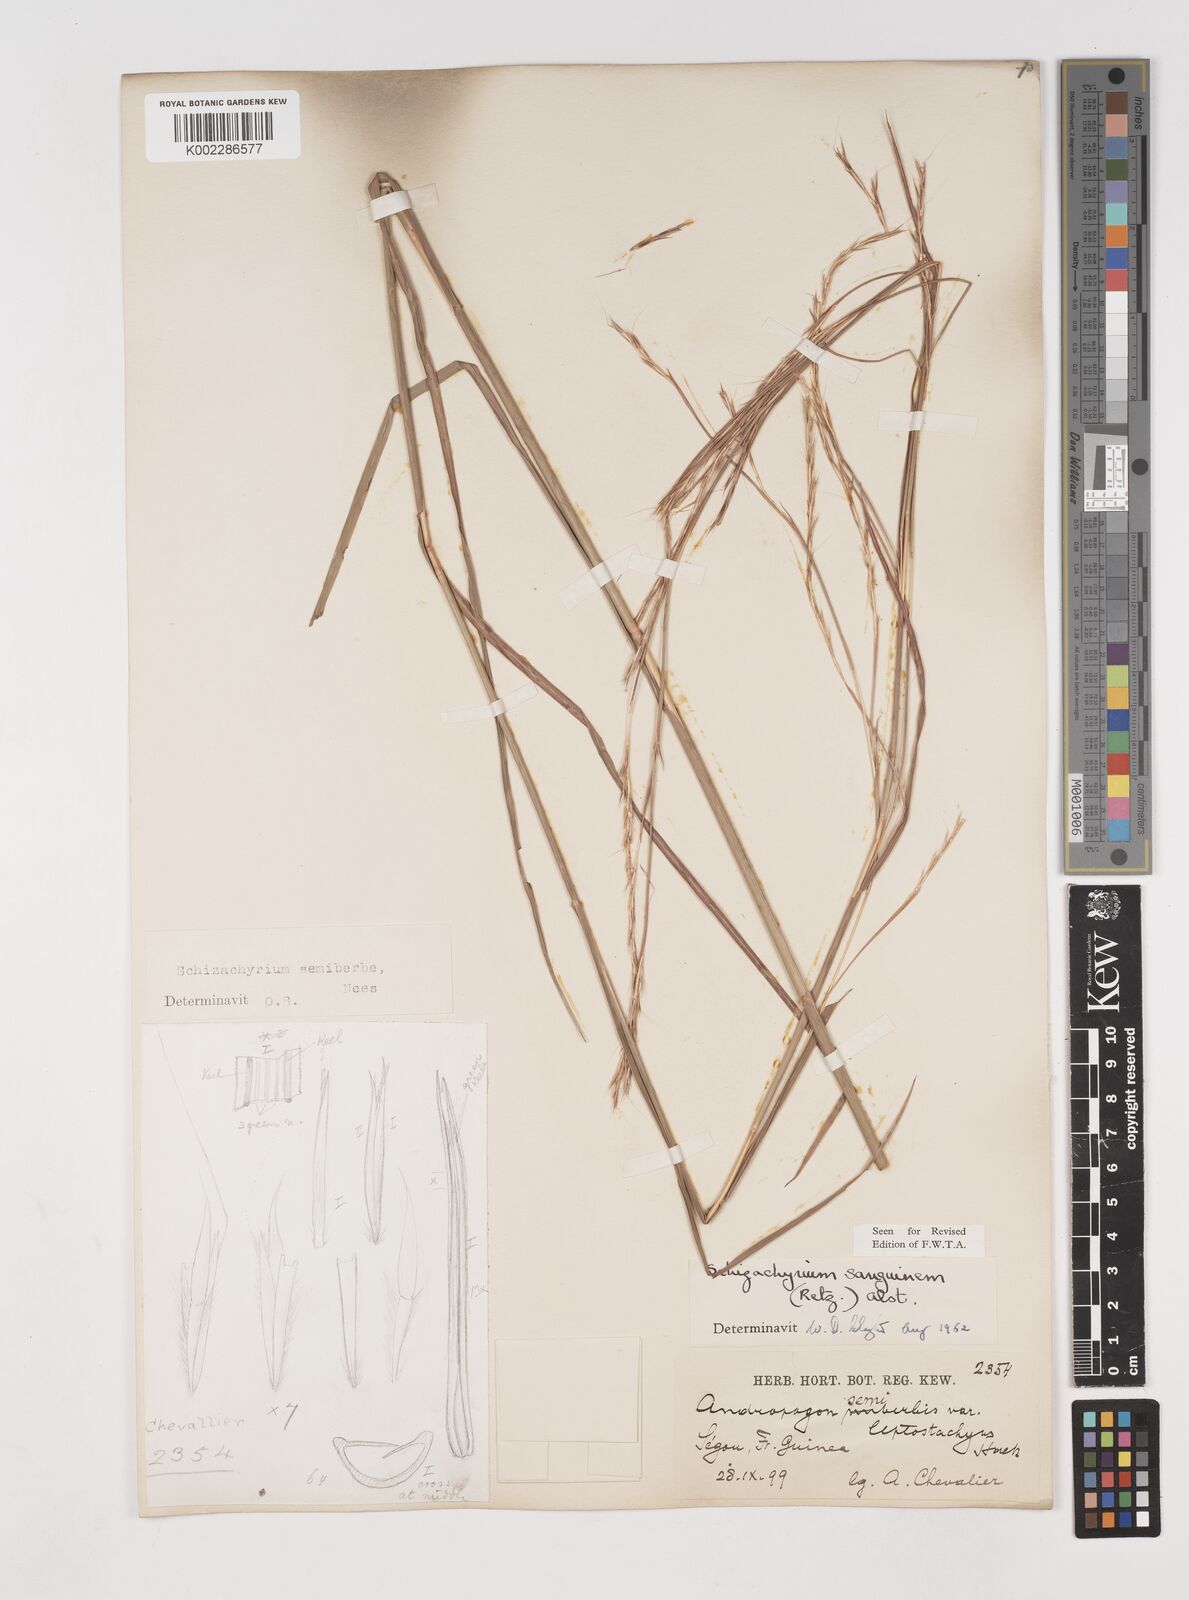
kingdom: Plantae
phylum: Tracheophyta
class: Liliopsida
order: Poales
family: Poaceae
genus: Schizachyrium
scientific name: Schizachyrium sanguineum
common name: Crimson bluestem
